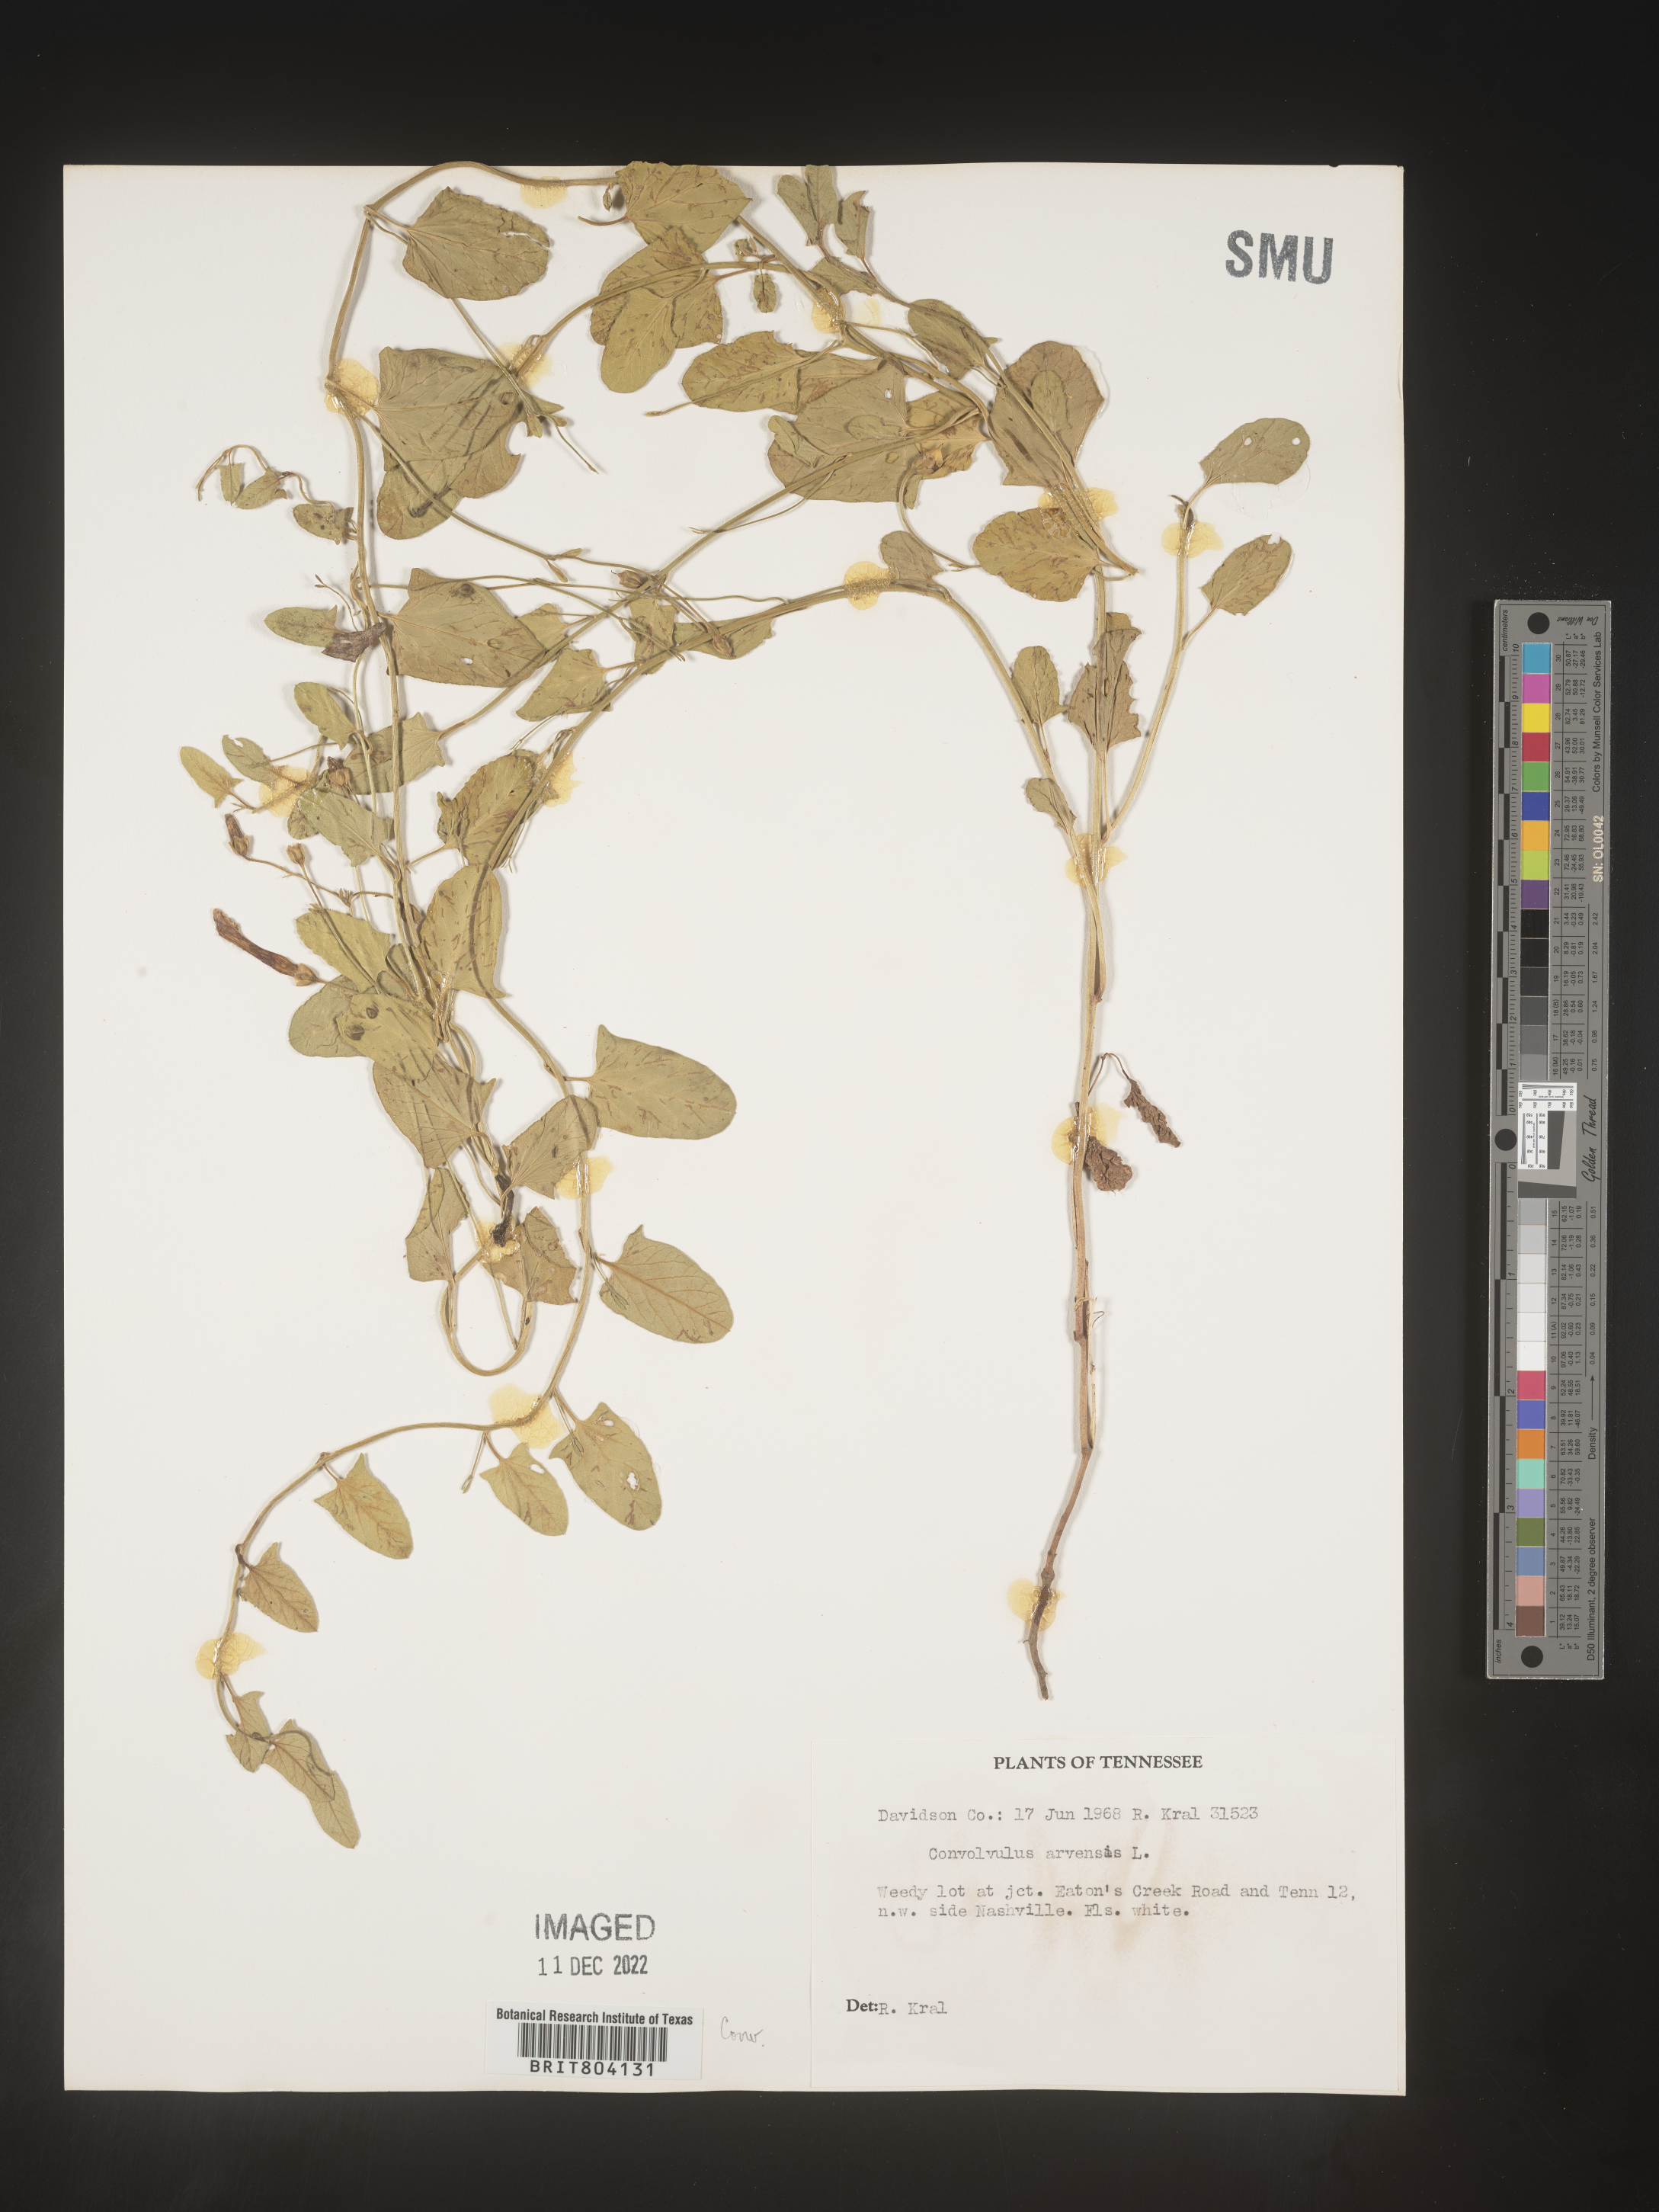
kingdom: Plantae
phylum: Tracheophyta
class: Magnoliopsida
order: Solanales
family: Convolvulaceae
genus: Convolvulus
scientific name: Convolvulus arvensis
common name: Field bindweed
